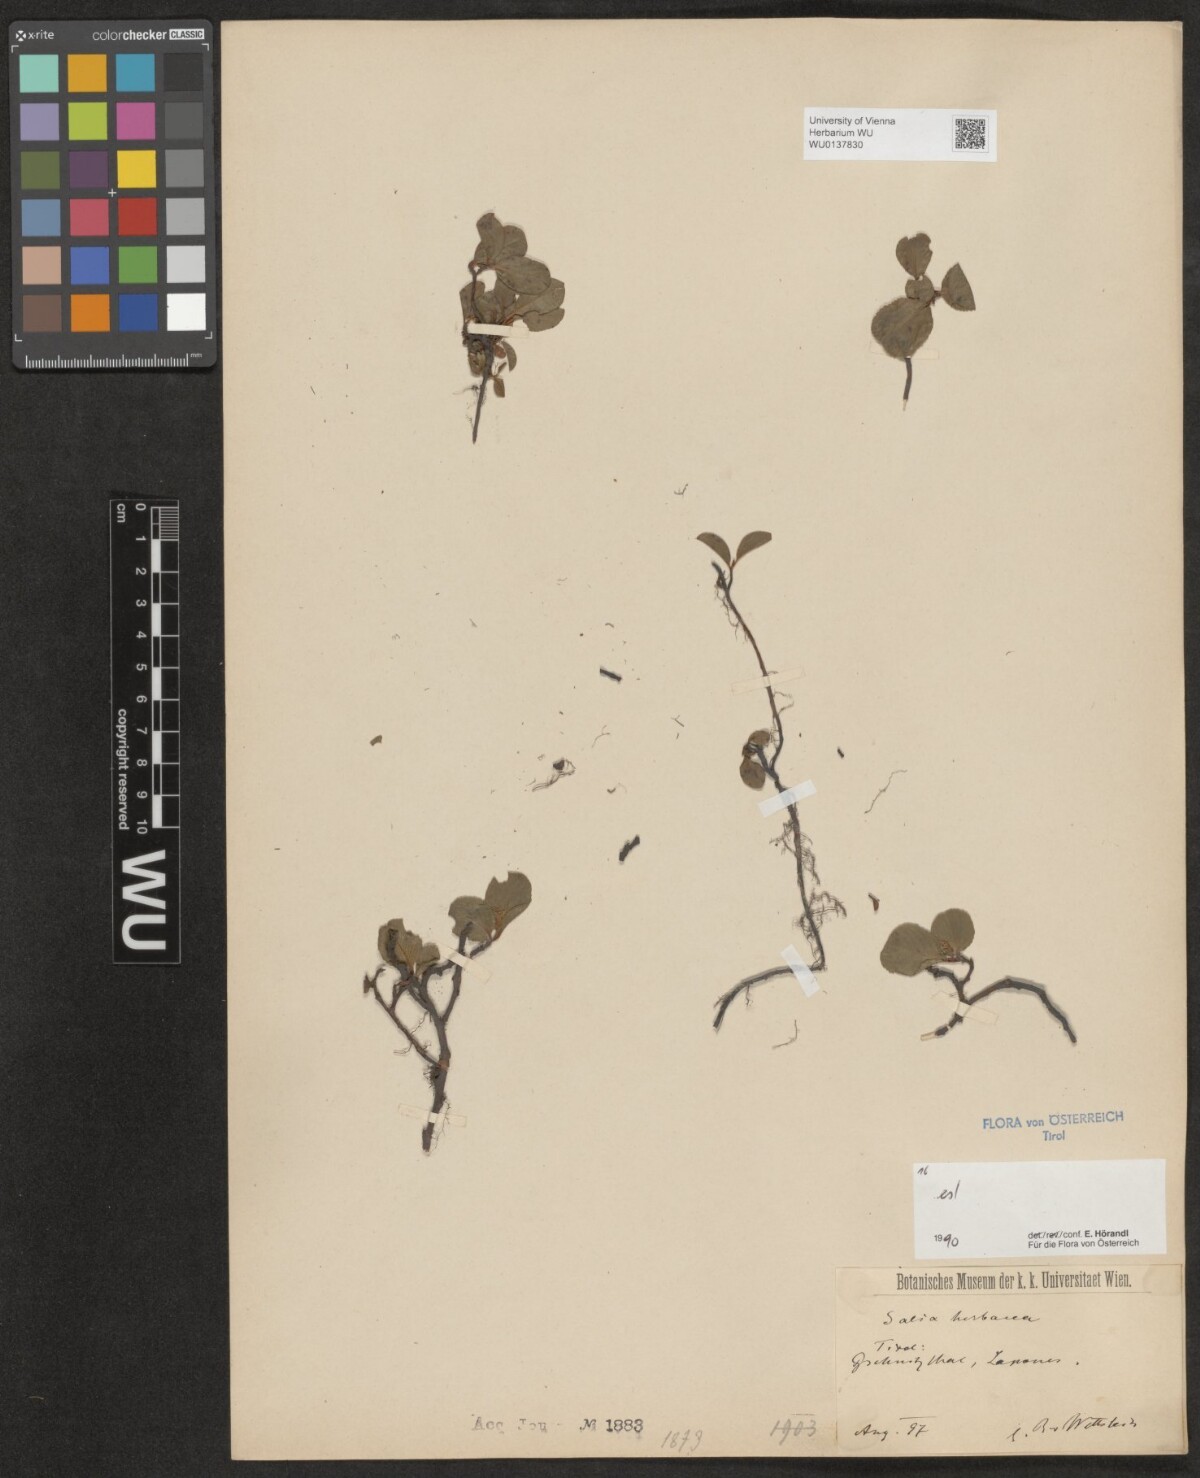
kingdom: Plantae
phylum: Tracheophyta
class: Magnoliopsida
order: Malpighiales
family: Salicaceae
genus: Salix
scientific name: Salix herbacea
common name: Dwarf willow
